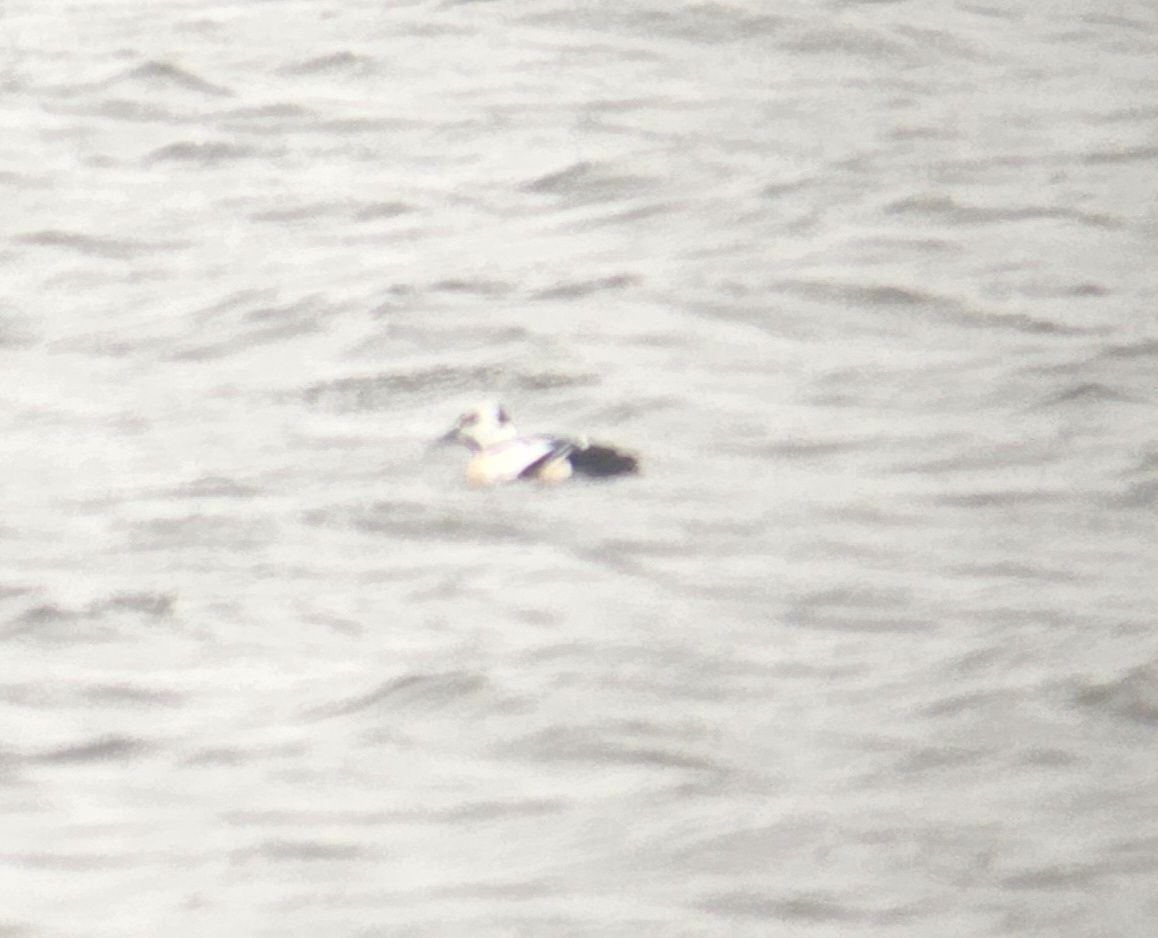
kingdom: Animalia
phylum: Chordata
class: Aves
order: Anseriformes
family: Anatidae
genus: Polysticta
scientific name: Polysticta stelleri
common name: Steller's eider
